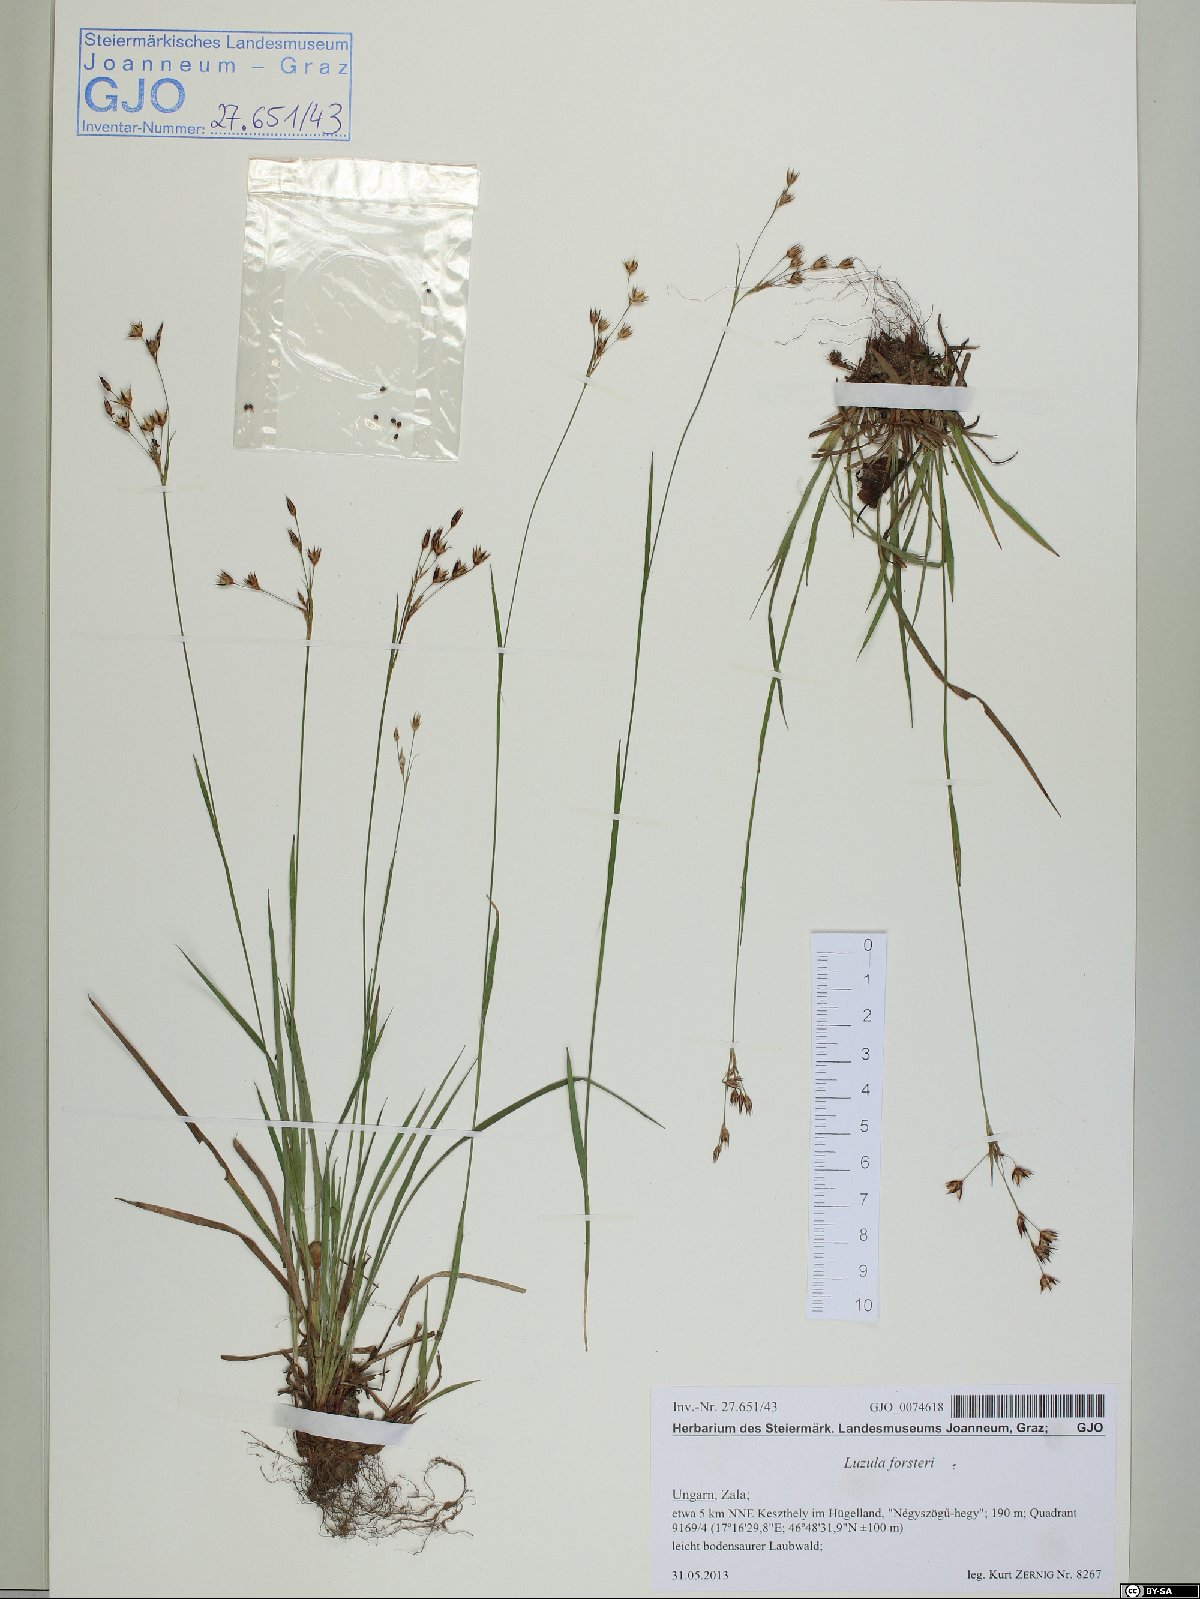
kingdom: Plantae
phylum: Tracheophyta
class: Liliopsida
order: Poales
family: Juncaceae
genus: Luzula
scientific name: Luzula forsteri
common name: Southern wood-rush
